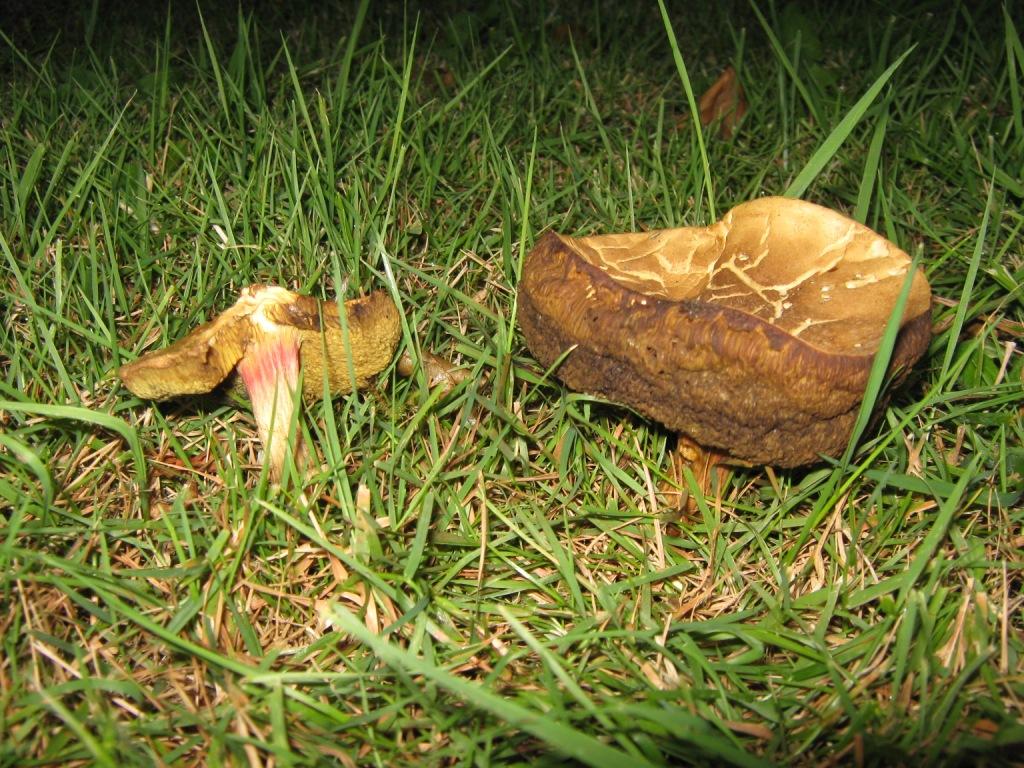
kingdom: Fungi
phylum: Basidiomycota
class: Agaricomycetes
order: Boletales
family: Boletaceae
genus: Xerocomellus
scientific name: Xerocomellus chrysenteron
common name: rødsprukken rørhat
